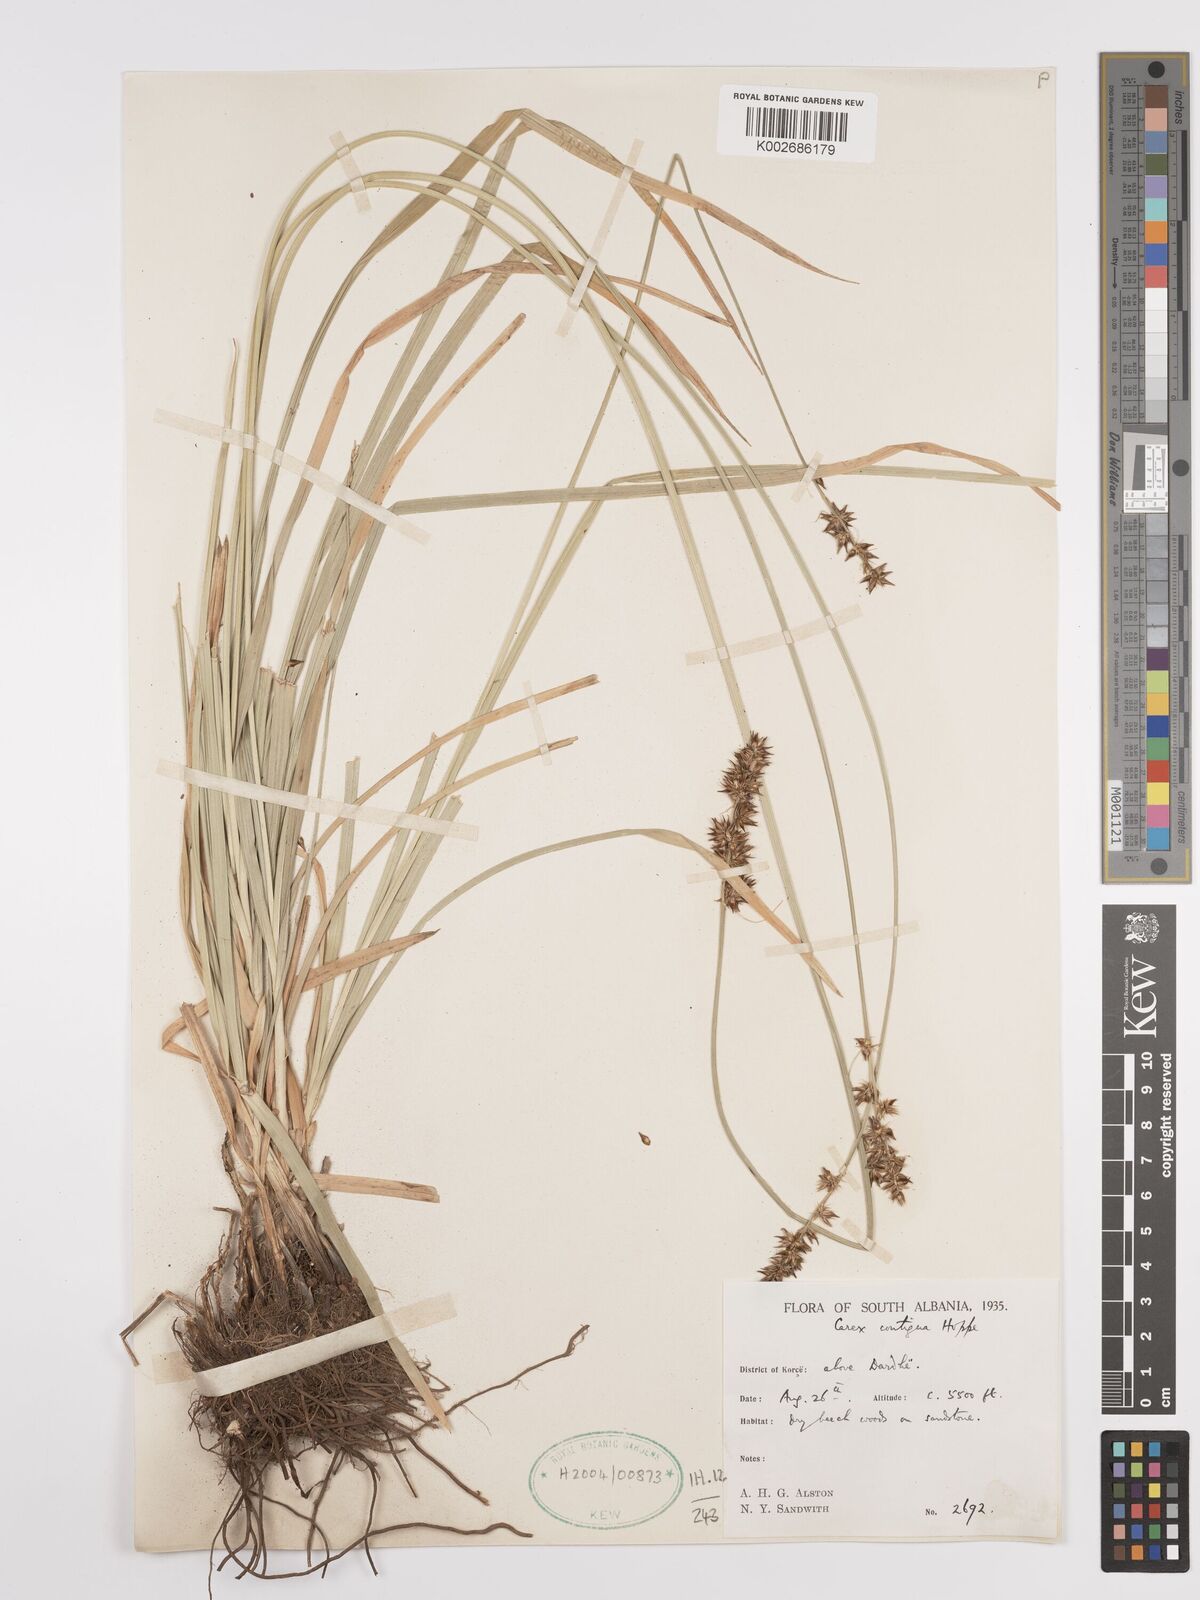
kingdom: Plantae
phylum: Tracheophyta
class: Liliopsida
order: Poales
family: Cyperaceae
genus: Carex
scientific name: Carex spicata
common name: Spiked sedge
